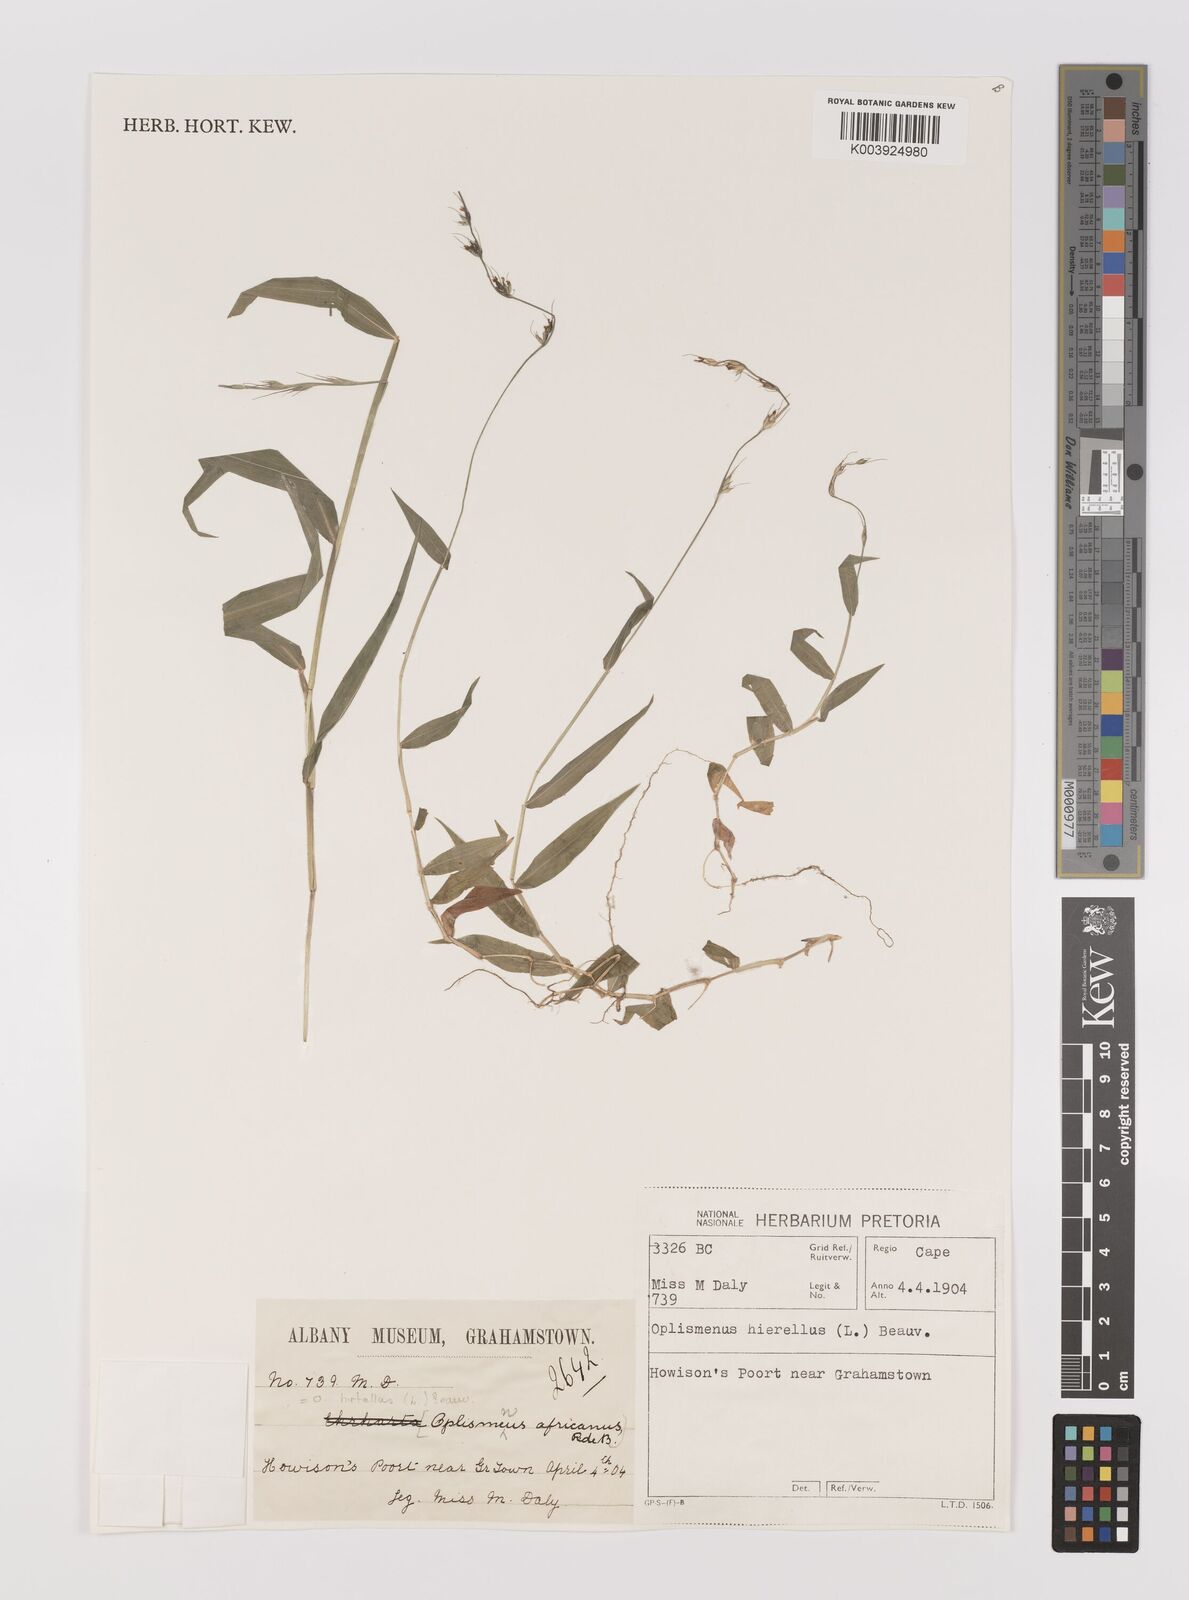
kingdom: Plantae
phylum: Tracheophyta
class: Liliopsida
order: Poales
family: Poaceae
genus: Oplismenus
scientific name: Oplismenus hirtellus
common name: Basketgrass
